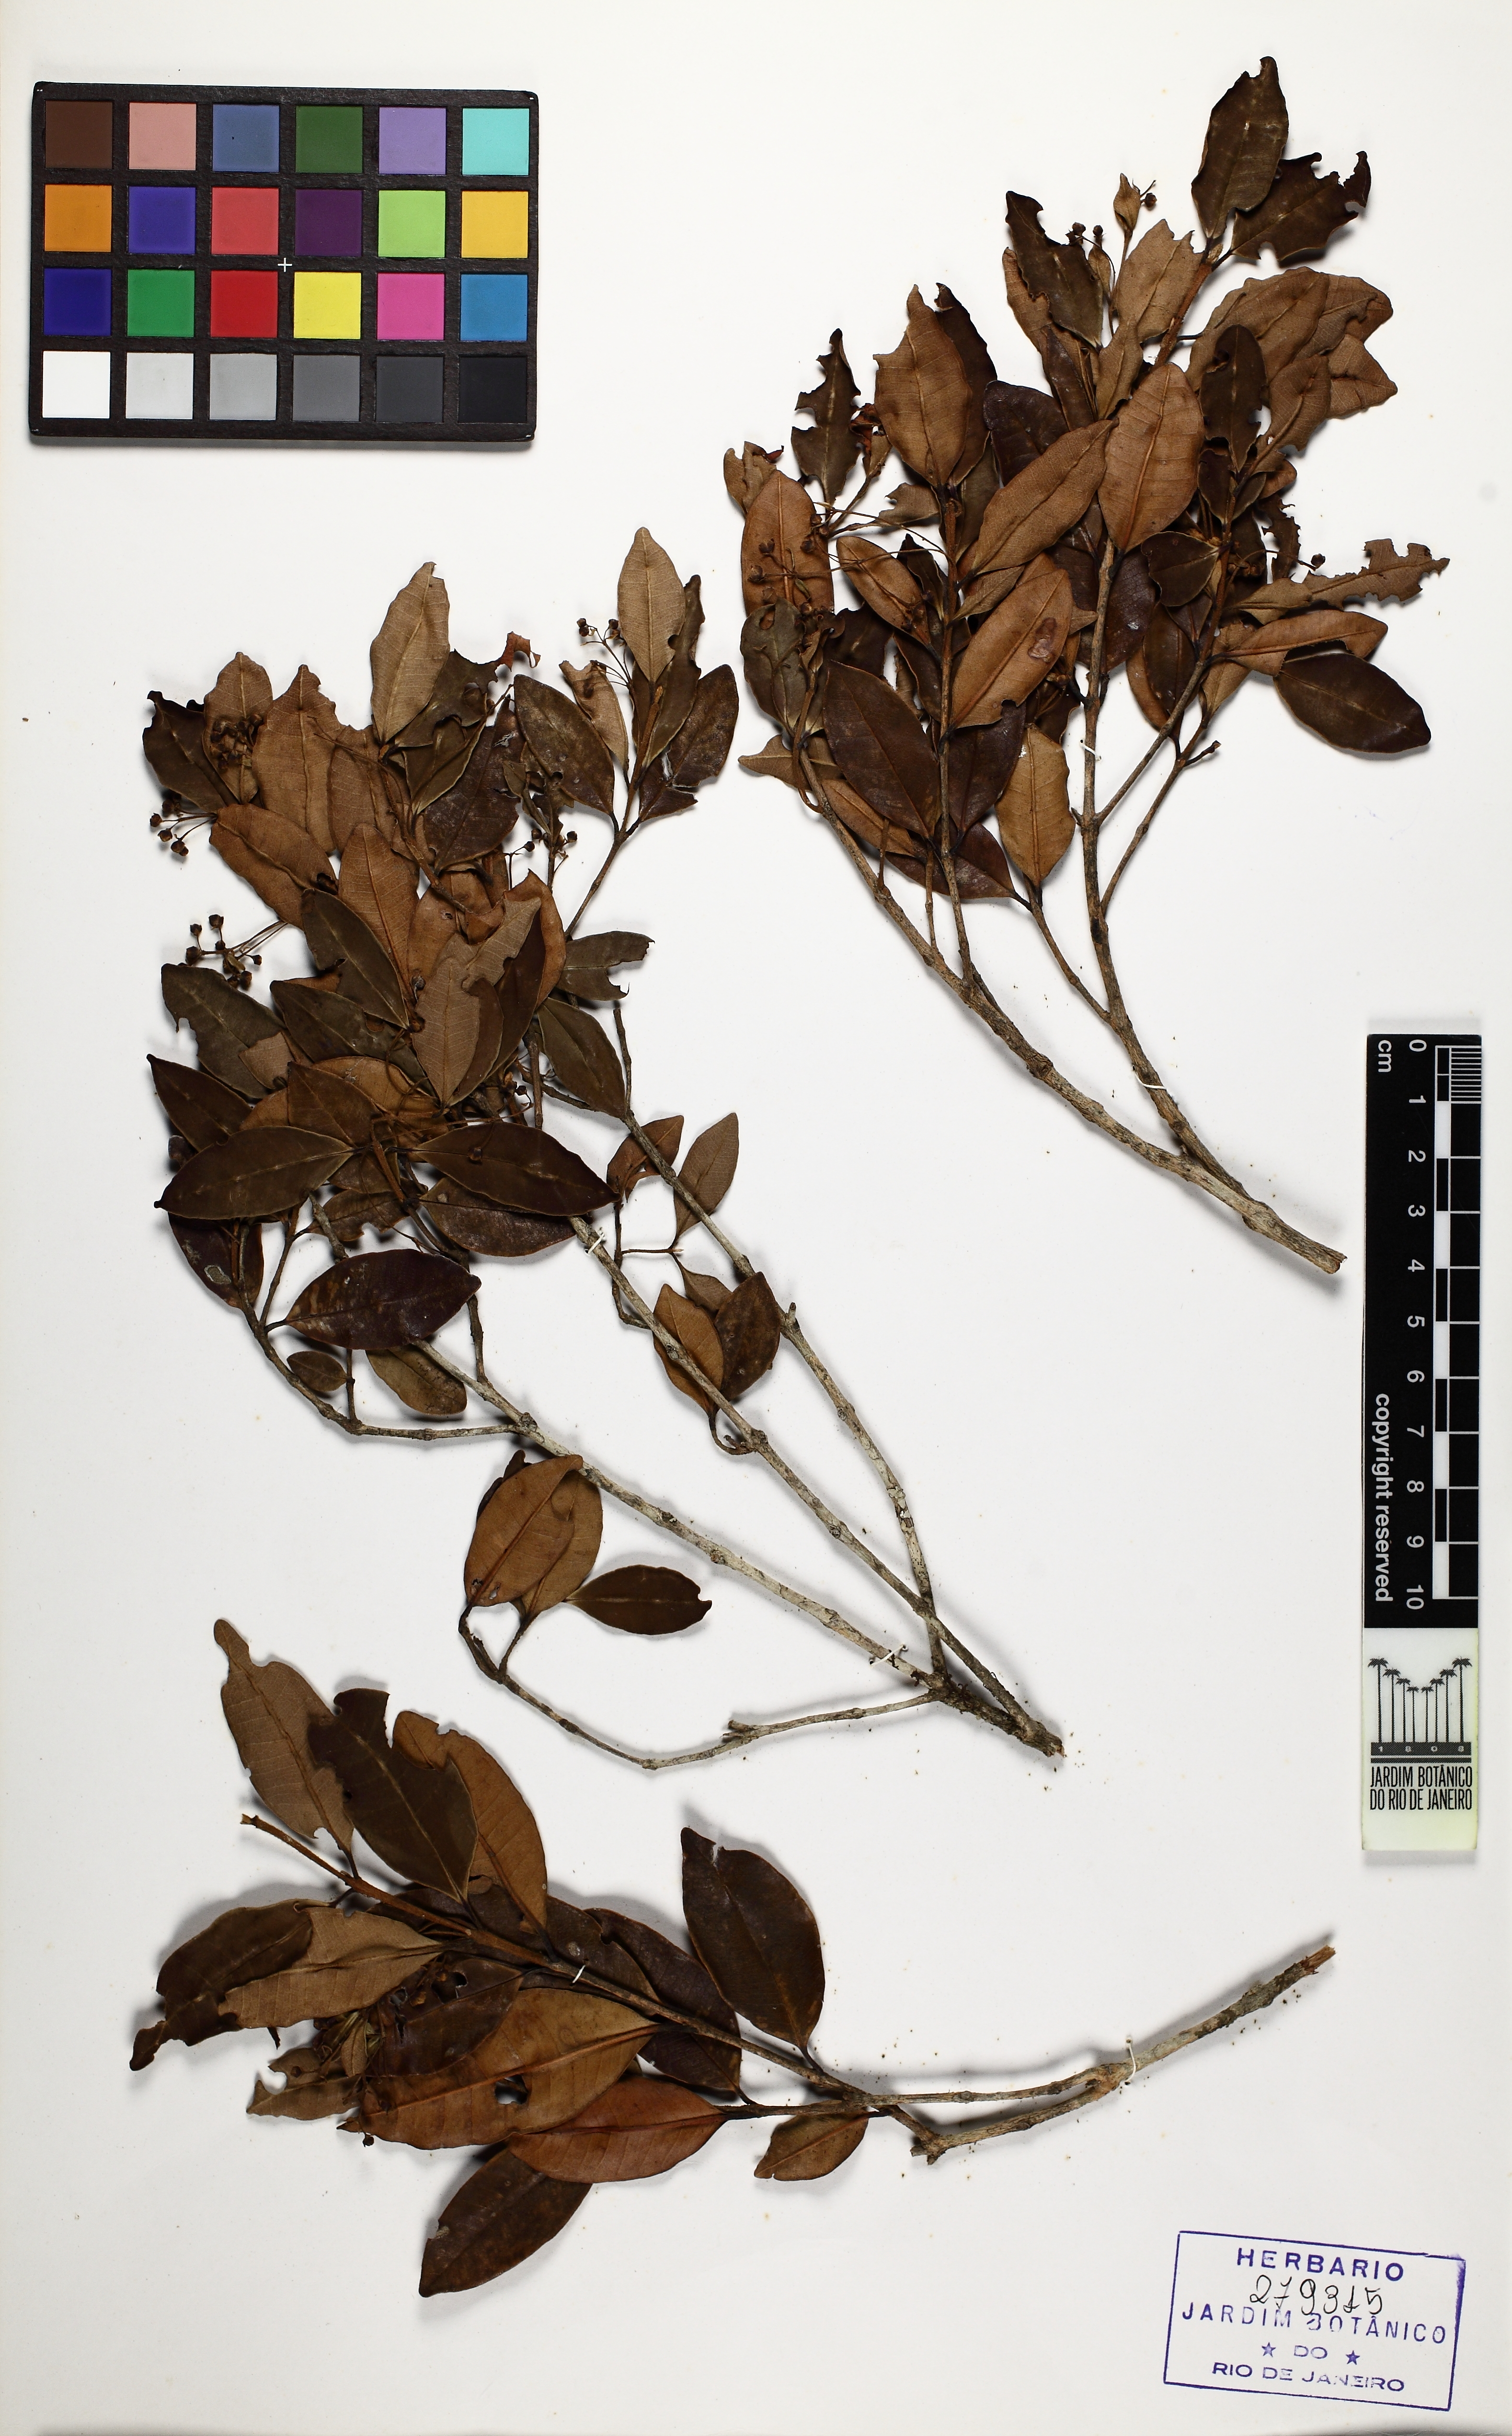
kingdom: Plantae
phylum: Tracheophyta
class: Magnoliopsida
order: Myrtales
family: Myrtaceae
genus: Myrcia
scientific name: Myrcia hartwegiana
